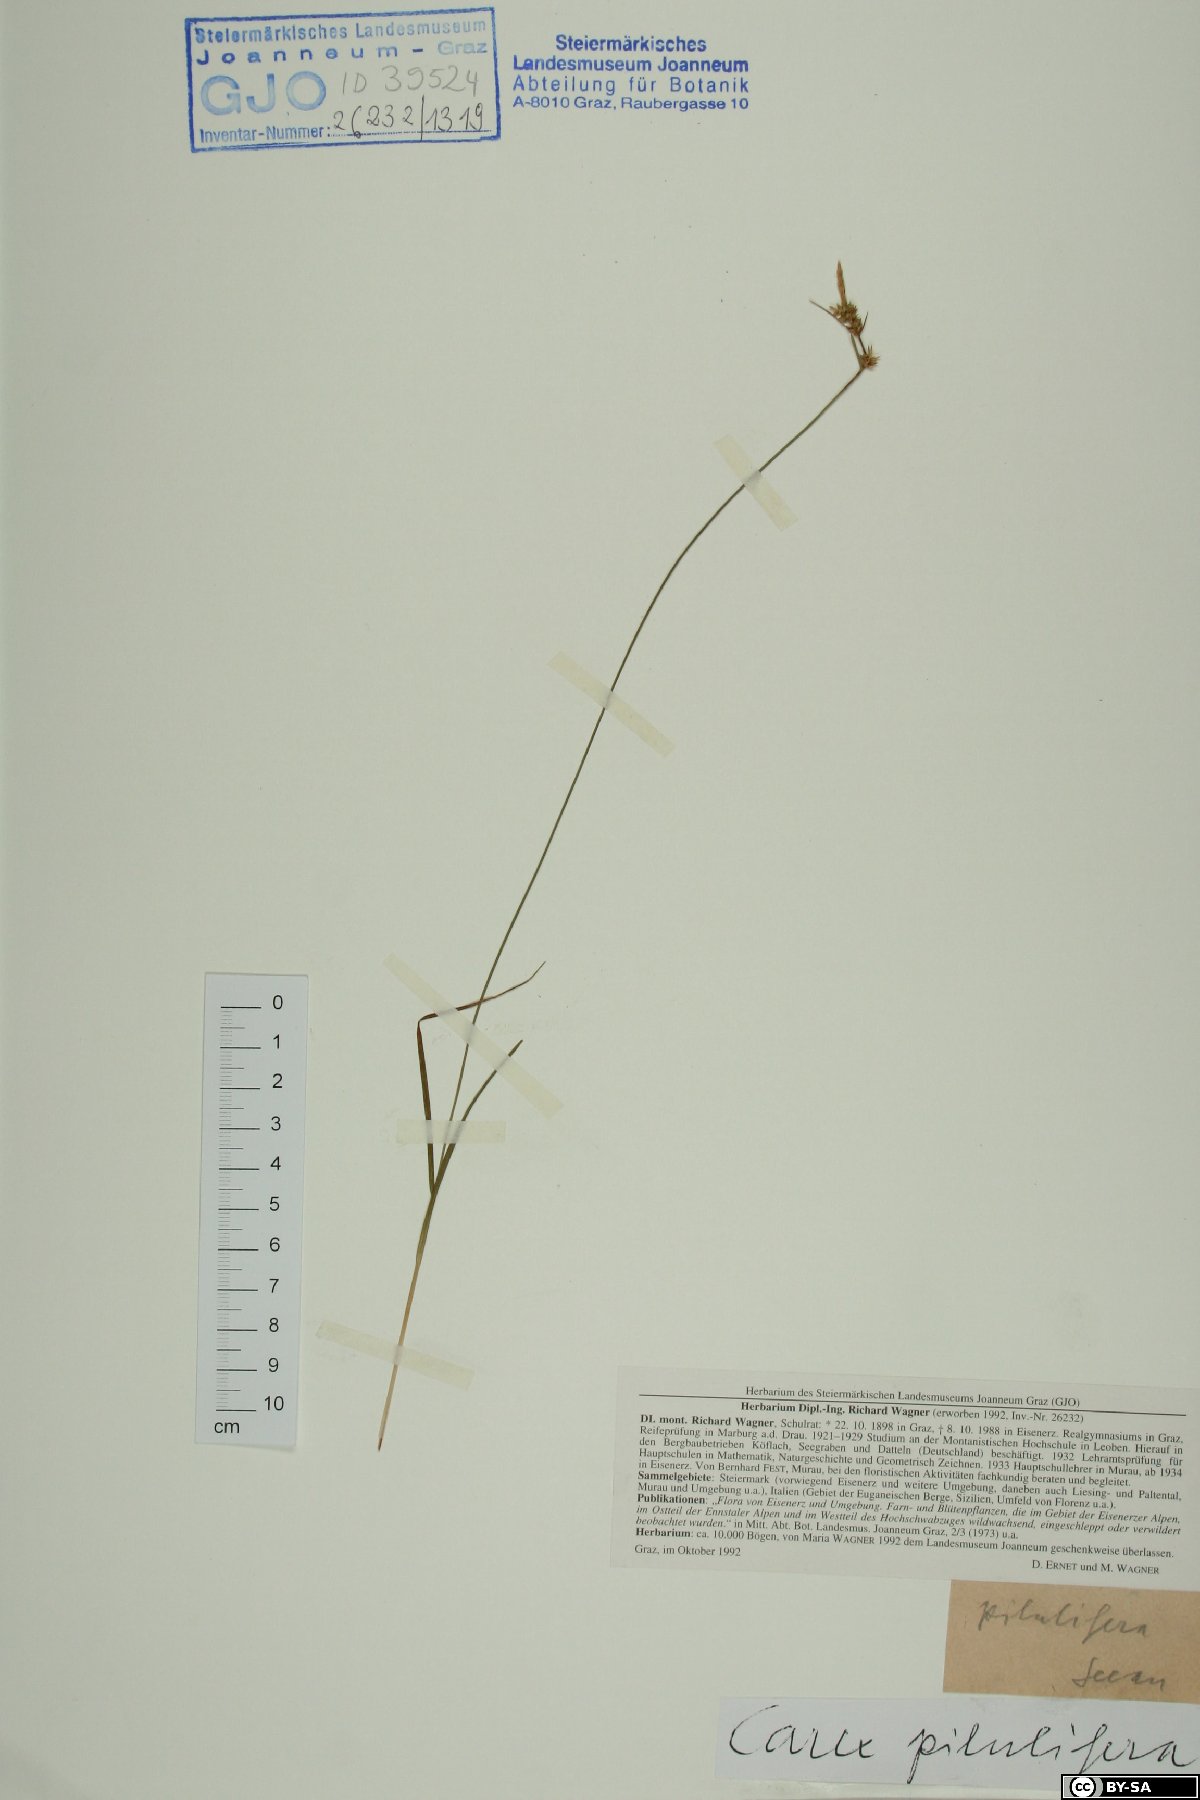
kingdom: Plantae
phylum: Tracheophyta
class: Liliopsida
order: Poales
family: Cyperaceae
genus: Carex
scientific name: Carex pilulifera
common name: Pill sedge
